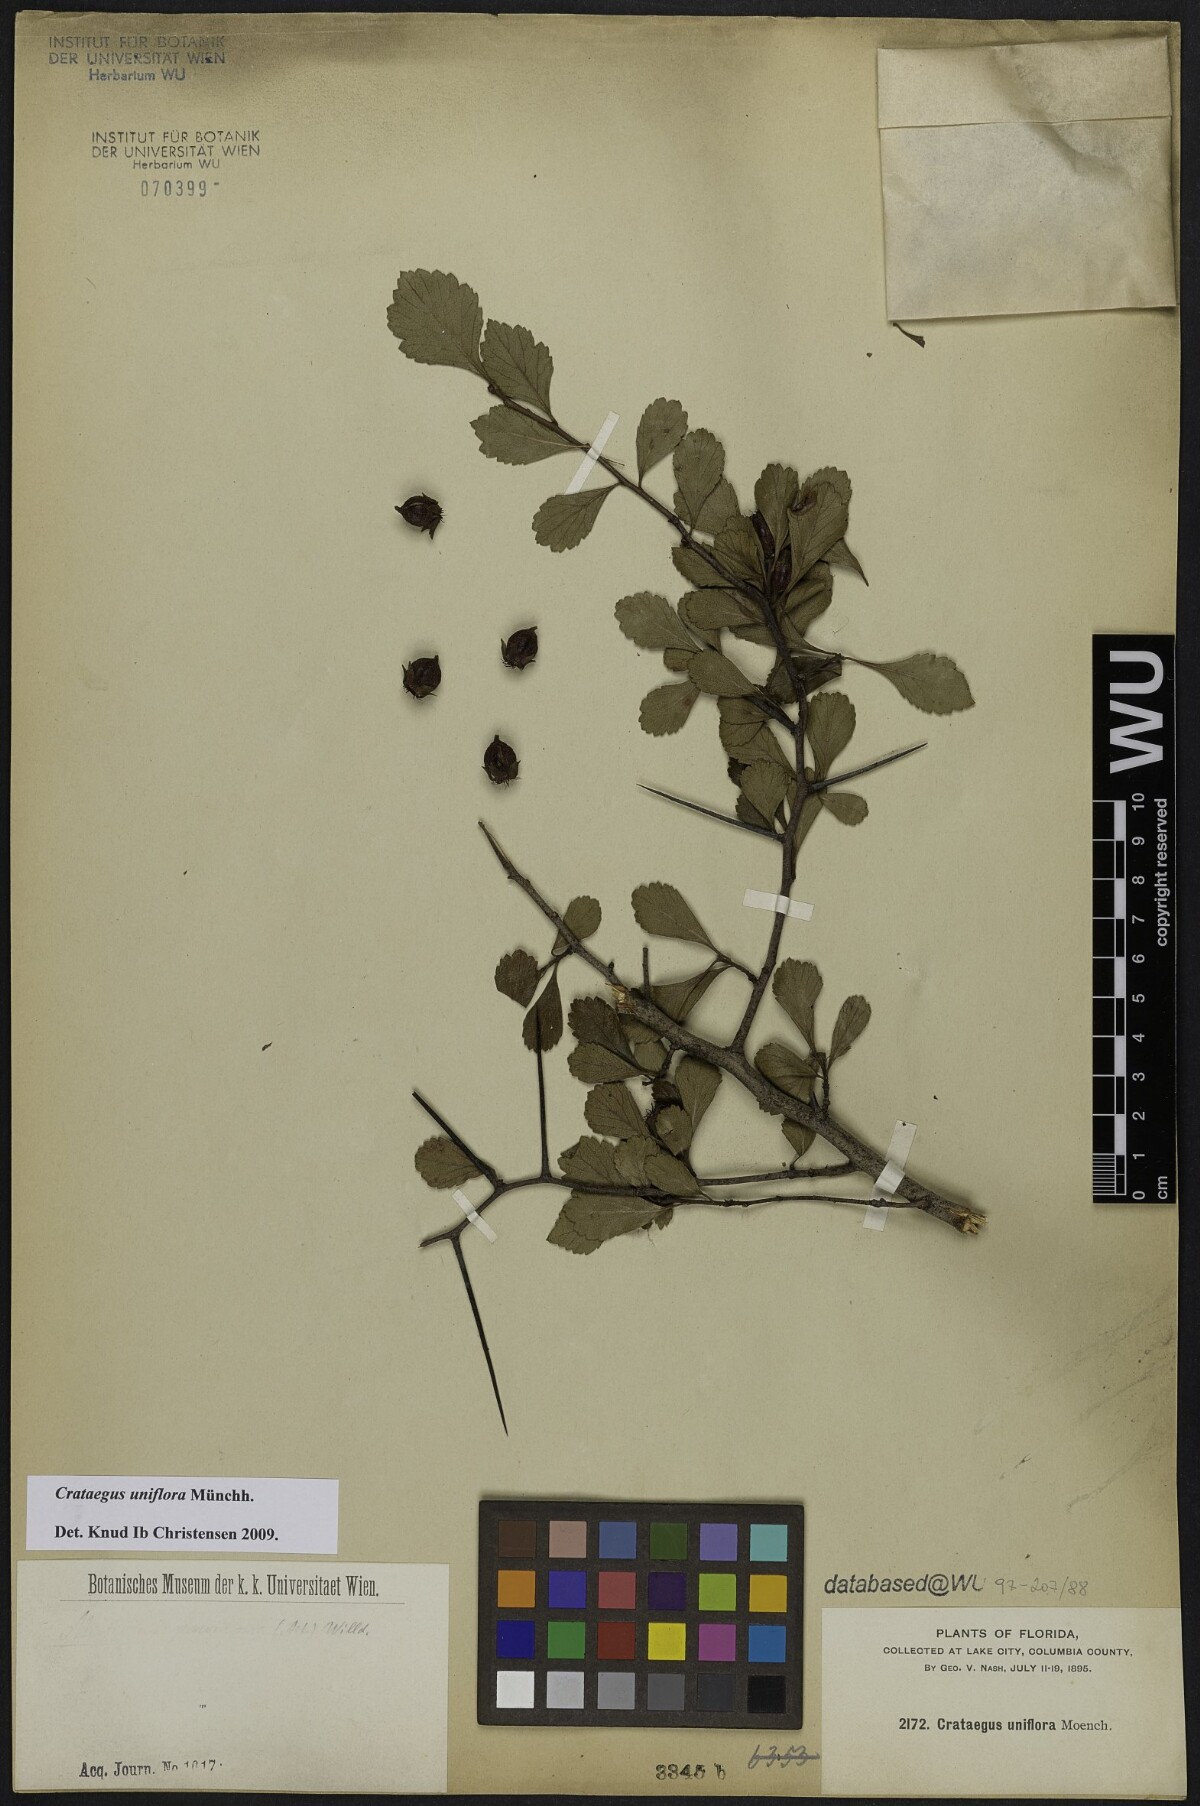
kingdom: Plantae
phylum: Tracheophyta
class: Magnoliopsida
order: Rosales
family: Rosaceae
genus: Crataegus
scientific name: Crataegus uniflora
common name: One-flower hawthorn
